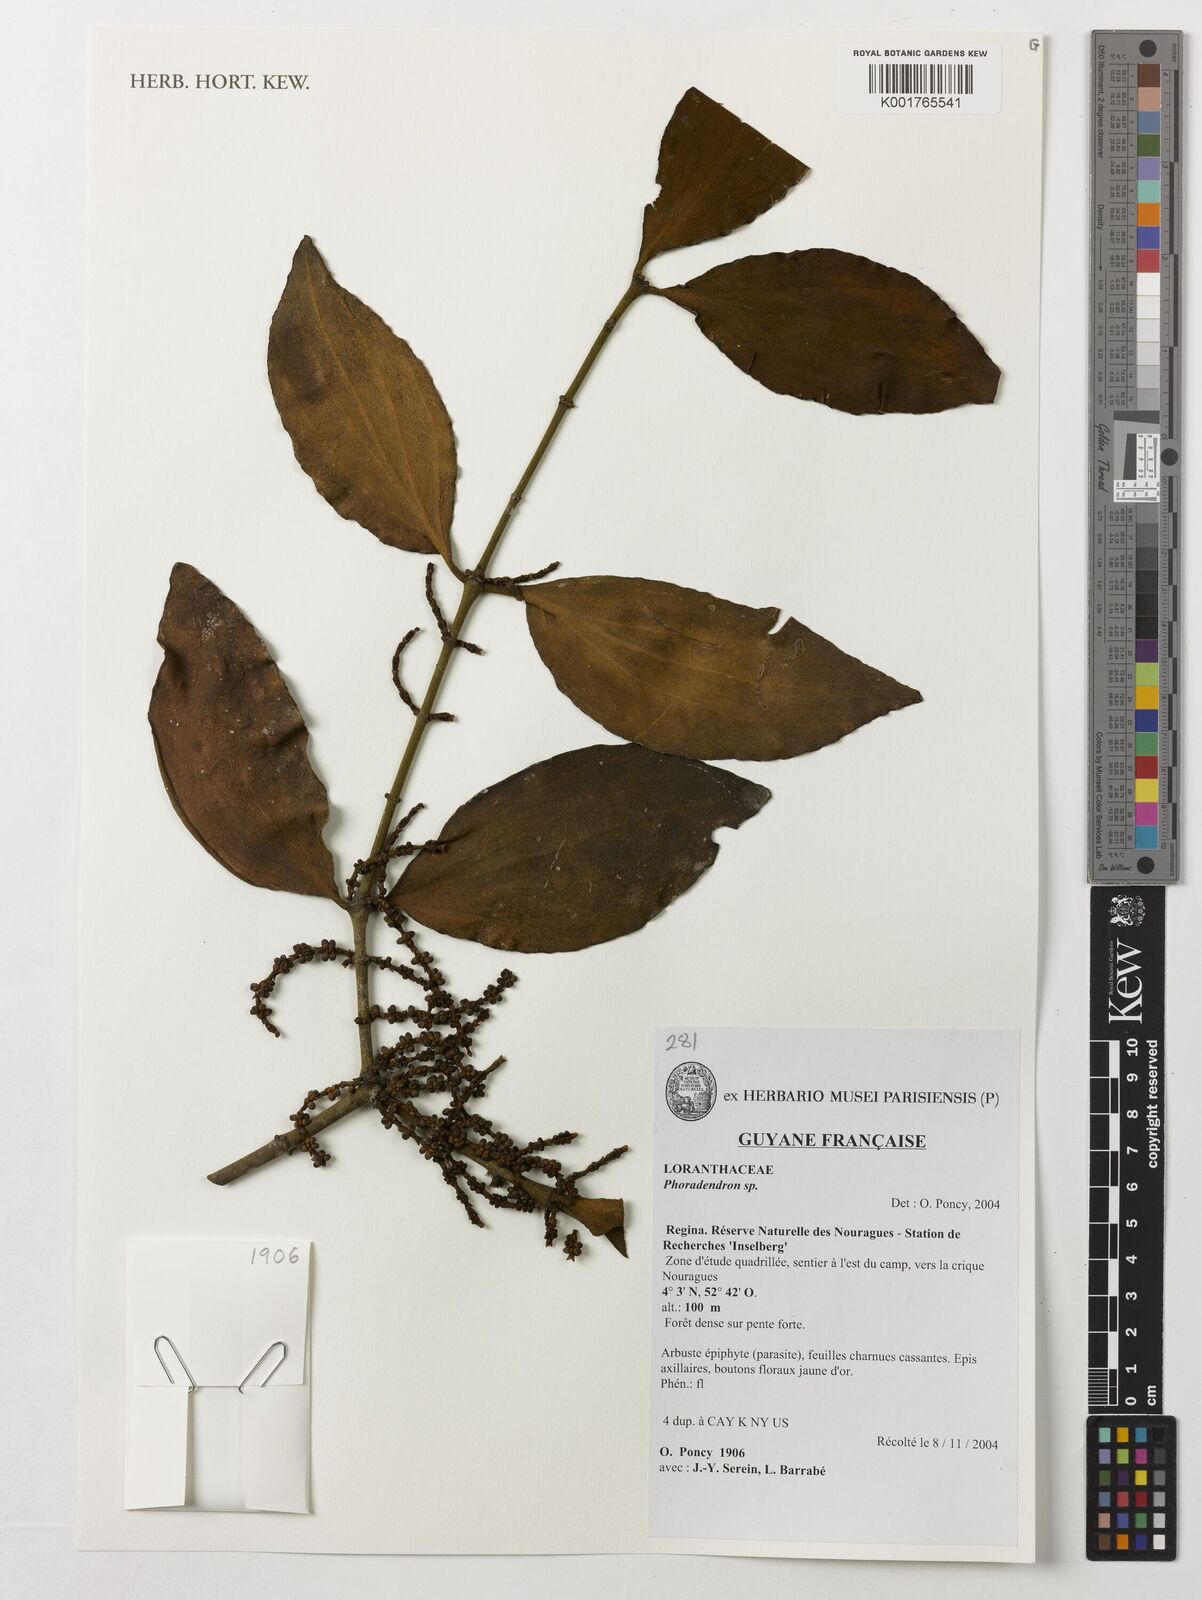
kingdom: Plantae
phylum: Tracheophyta
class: Magnoliopsida
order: Santalales
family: Viscaceae
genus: Phoradendron
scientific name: Phoradendron
